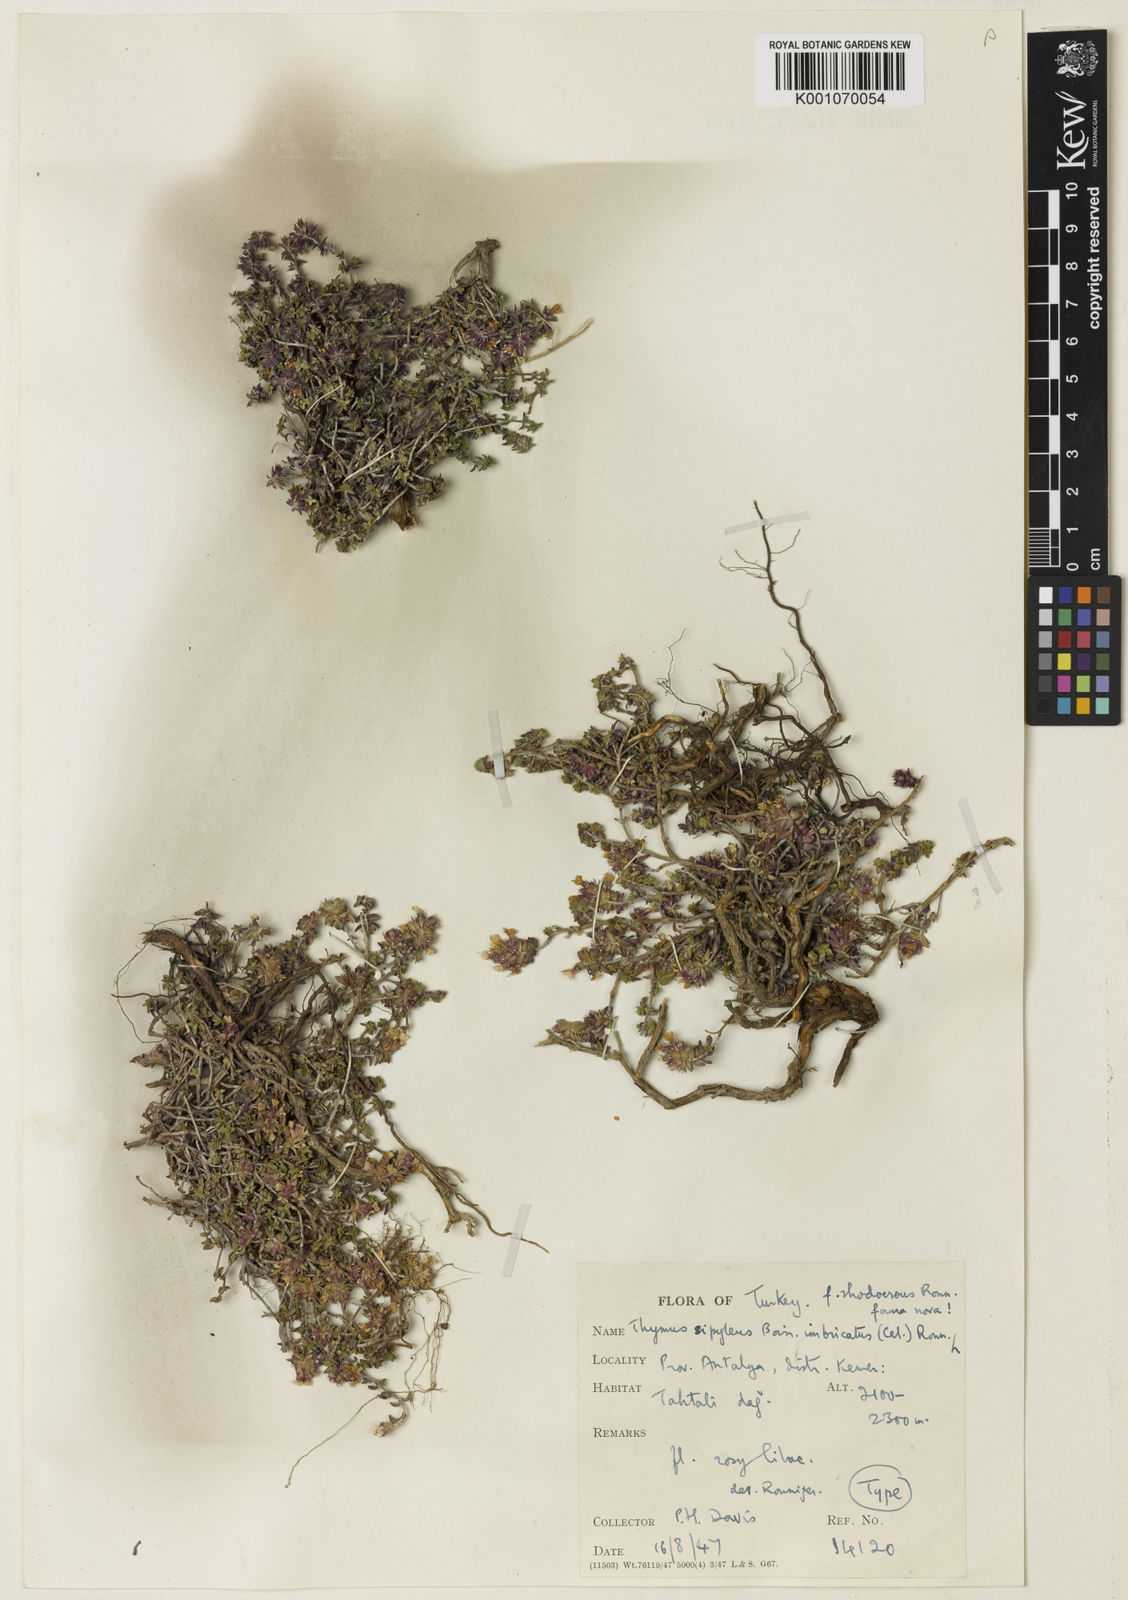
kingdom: Plantae
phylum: Tracheophyta
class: Magnoliopsida
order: Lamiales
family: Lamiaceae
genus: Thymus
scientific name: Thymus serpyllum
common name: Breckland thyme
